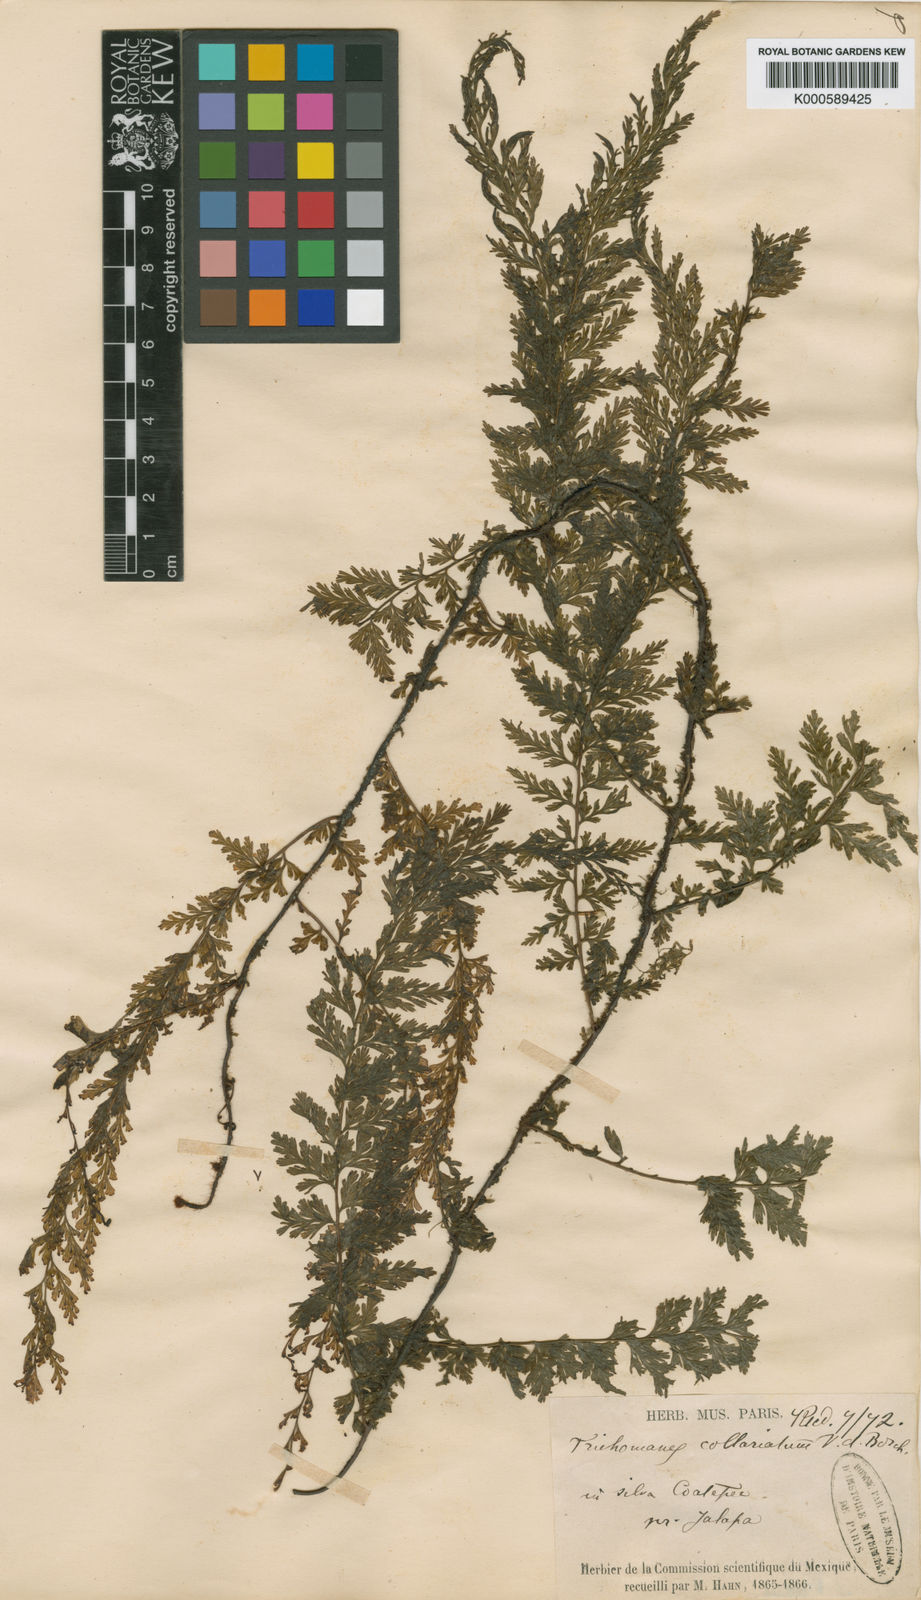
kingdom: Plantae
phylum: Tracheophyta
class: Polypodiopsida
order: Hymenophyllales
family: Hymenophyllaceae
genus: Vandenboschia
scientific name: Vandenboschia radicans
